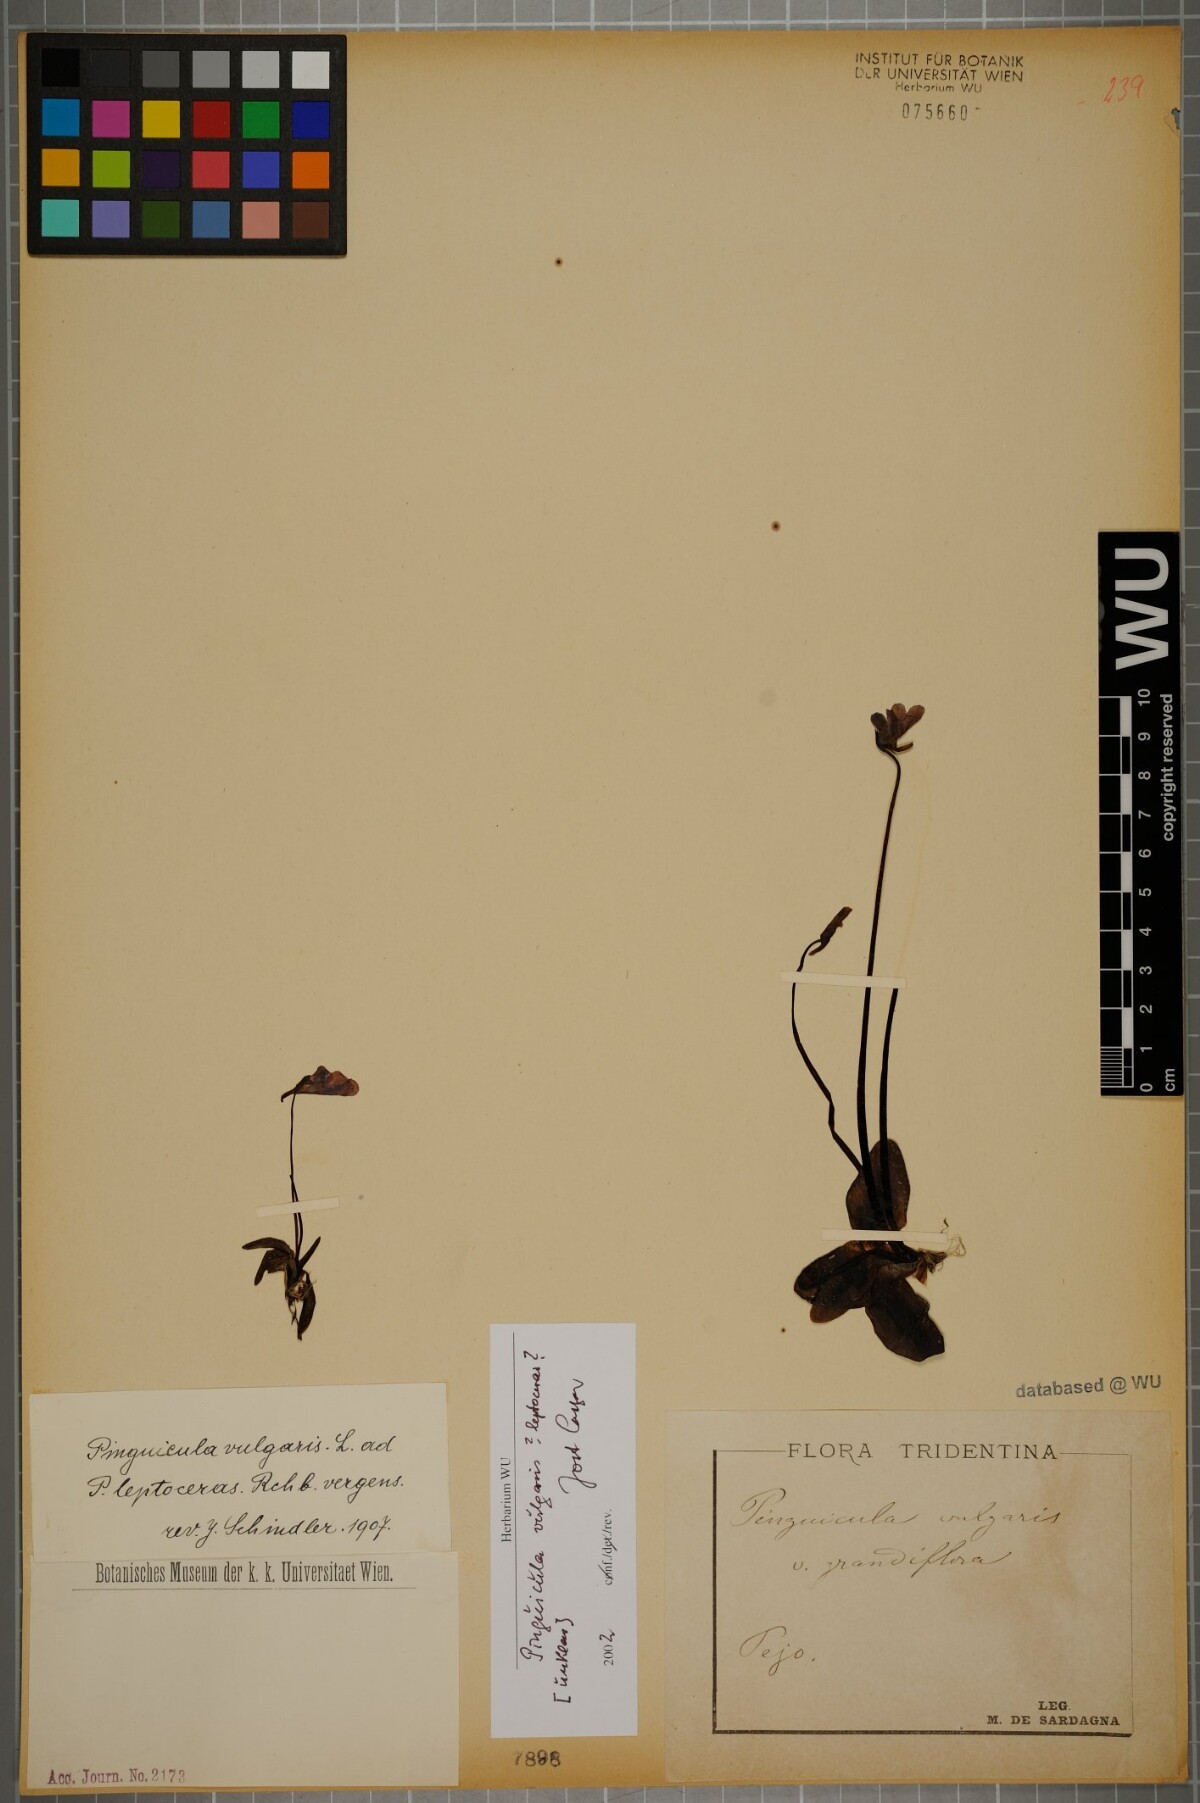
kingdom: Plantae
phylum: Tracheophyta
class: Magnoliopsida
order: Lamiales
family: Lentibulariaceae
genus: Pinguicula
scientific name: Pinguicula vulgaris
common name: Common butterwort
